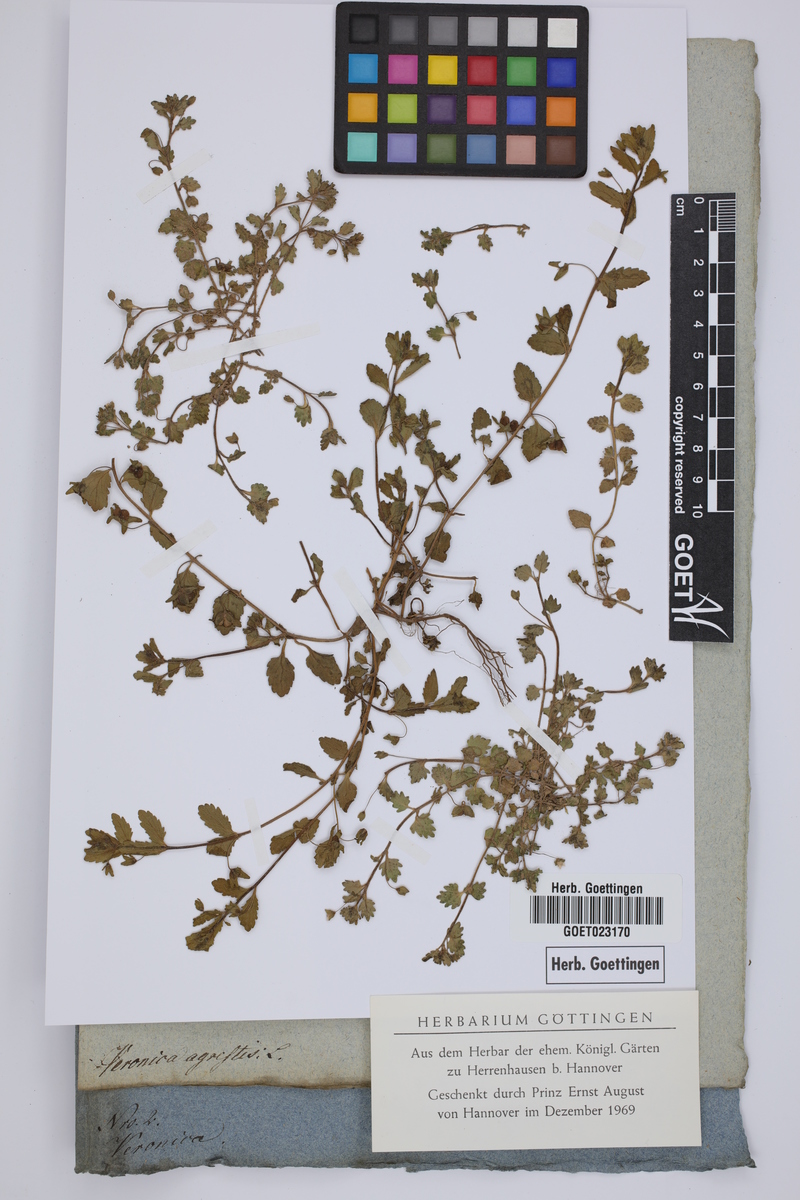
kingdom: Plantae
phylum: Tracheophyta
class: Magnoliopsida
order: Lamiales
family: Plantaginaceae
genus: Veronica
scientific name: Veronica agrestis
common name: Green field-speedwell
